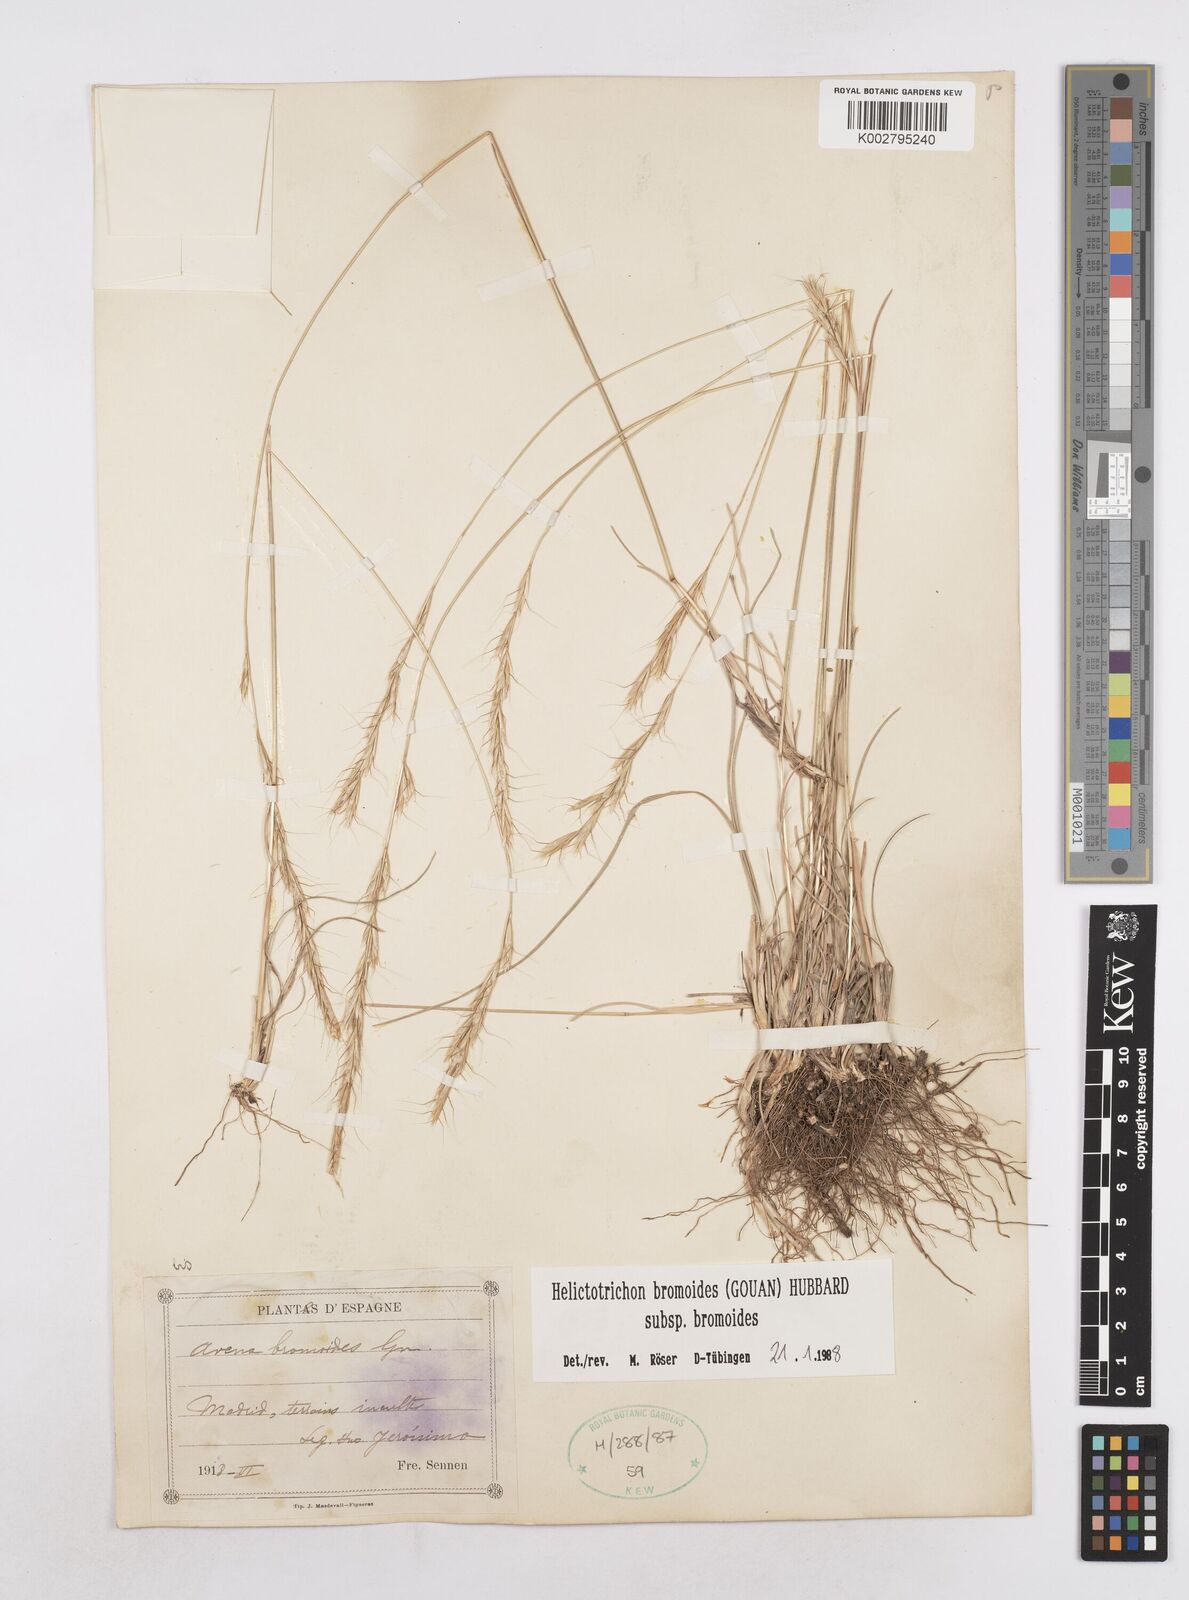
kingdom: Plantae
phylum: Tracheophyta
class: Liliopsida
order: Poales
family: Poaceae
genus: Helictochloa
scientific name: Helictochloa bromoides
